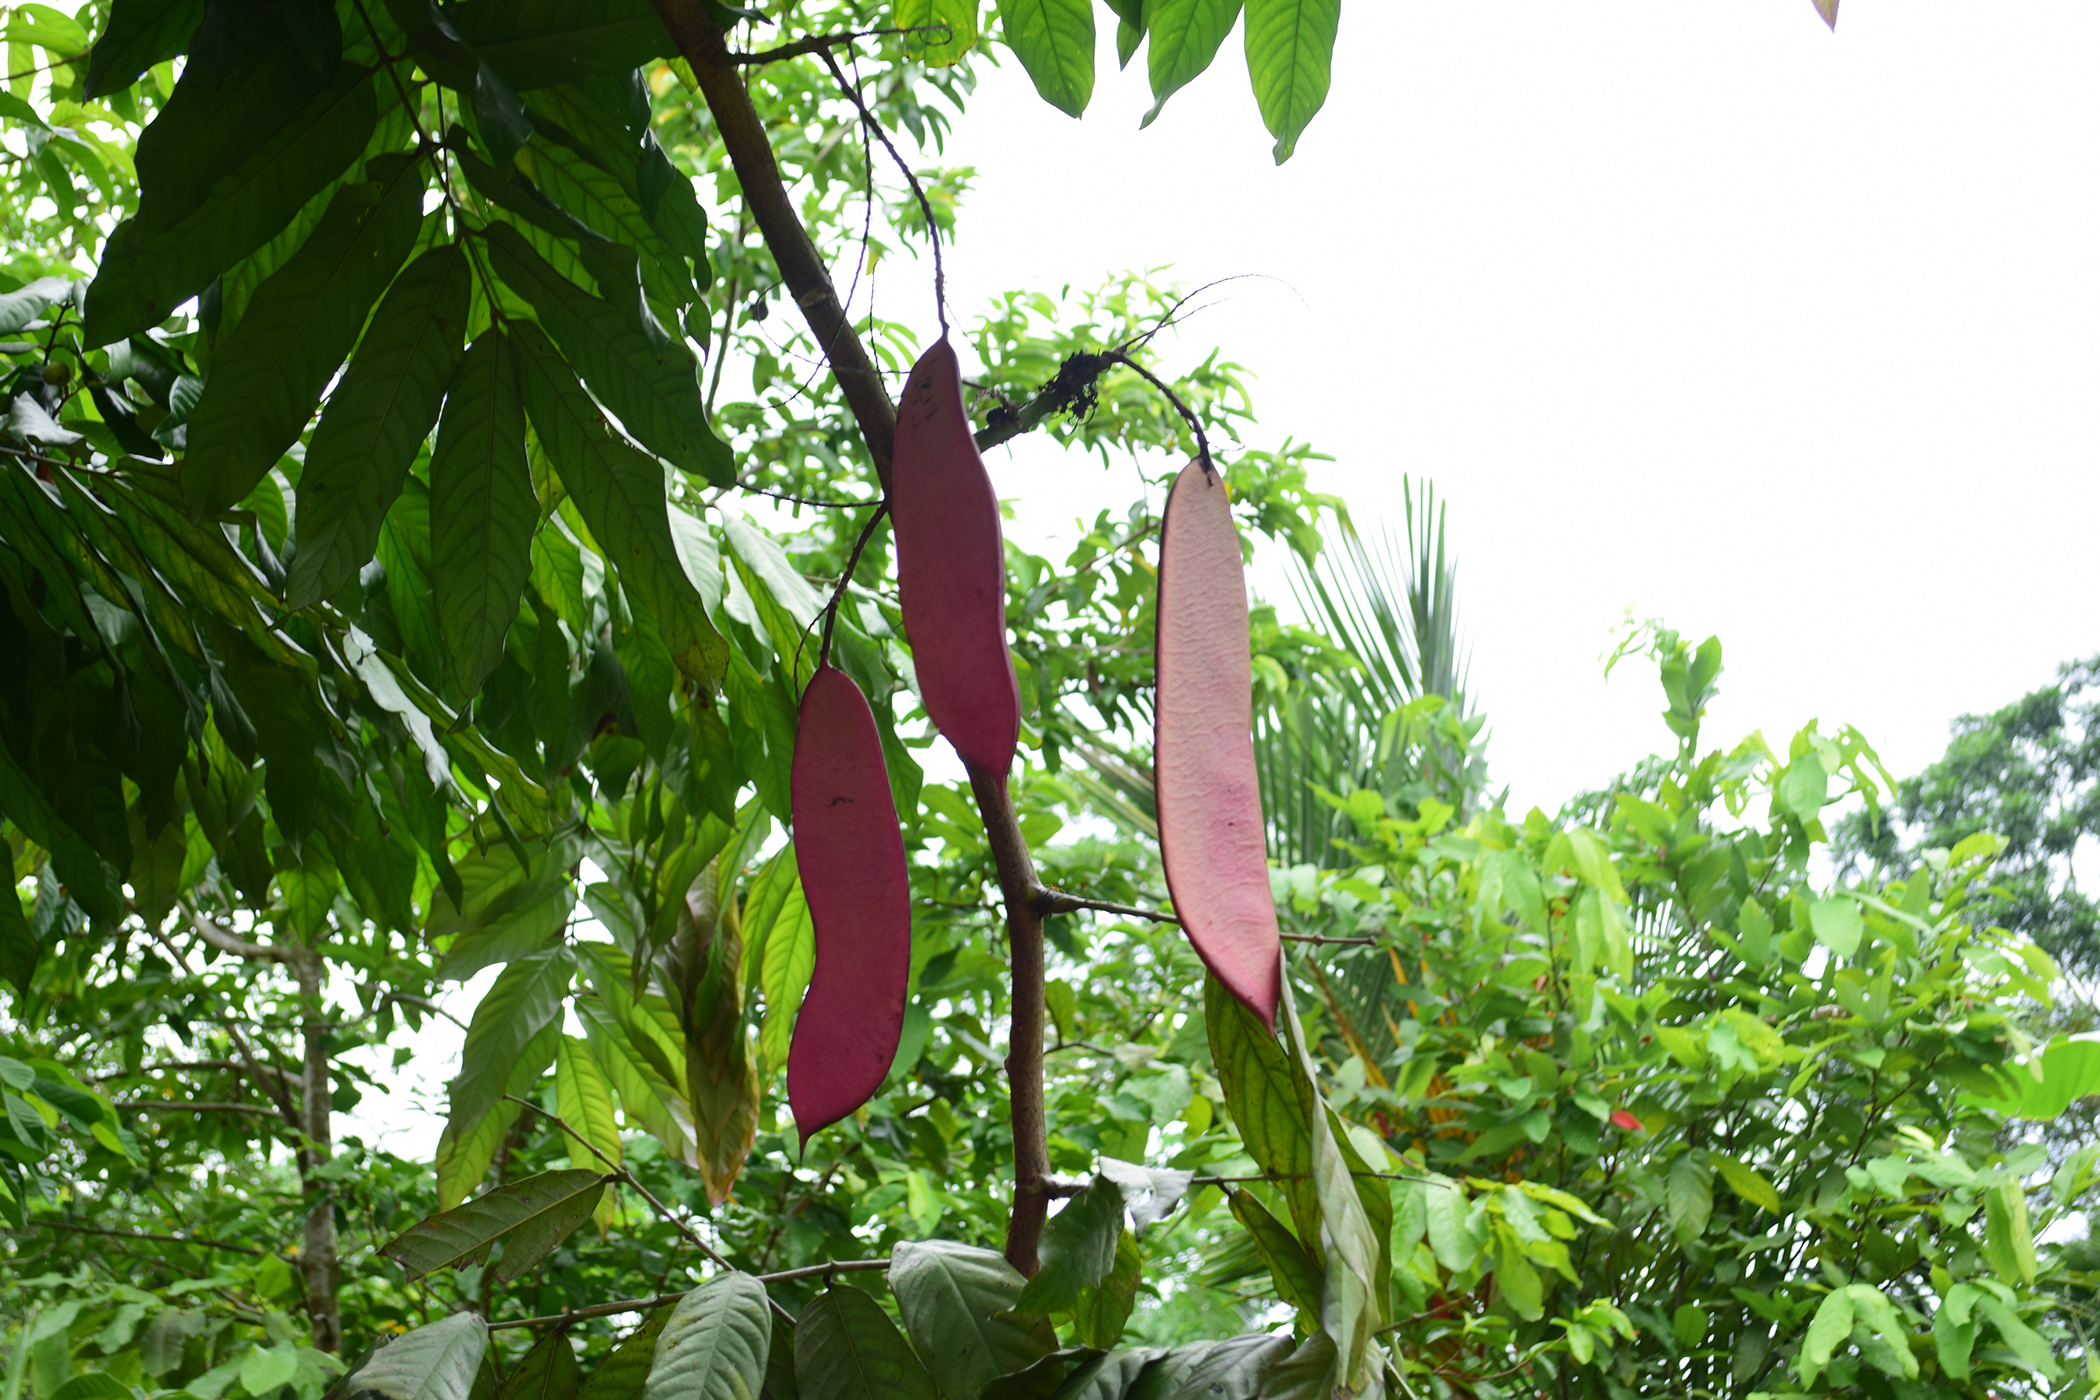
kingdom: Plantae
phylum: Tracheophyta
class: Magnoliopsida
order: Fabales
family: Fabaceae
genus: Saraca
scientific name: Saraca thaipingensis
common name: Yellow saraca
